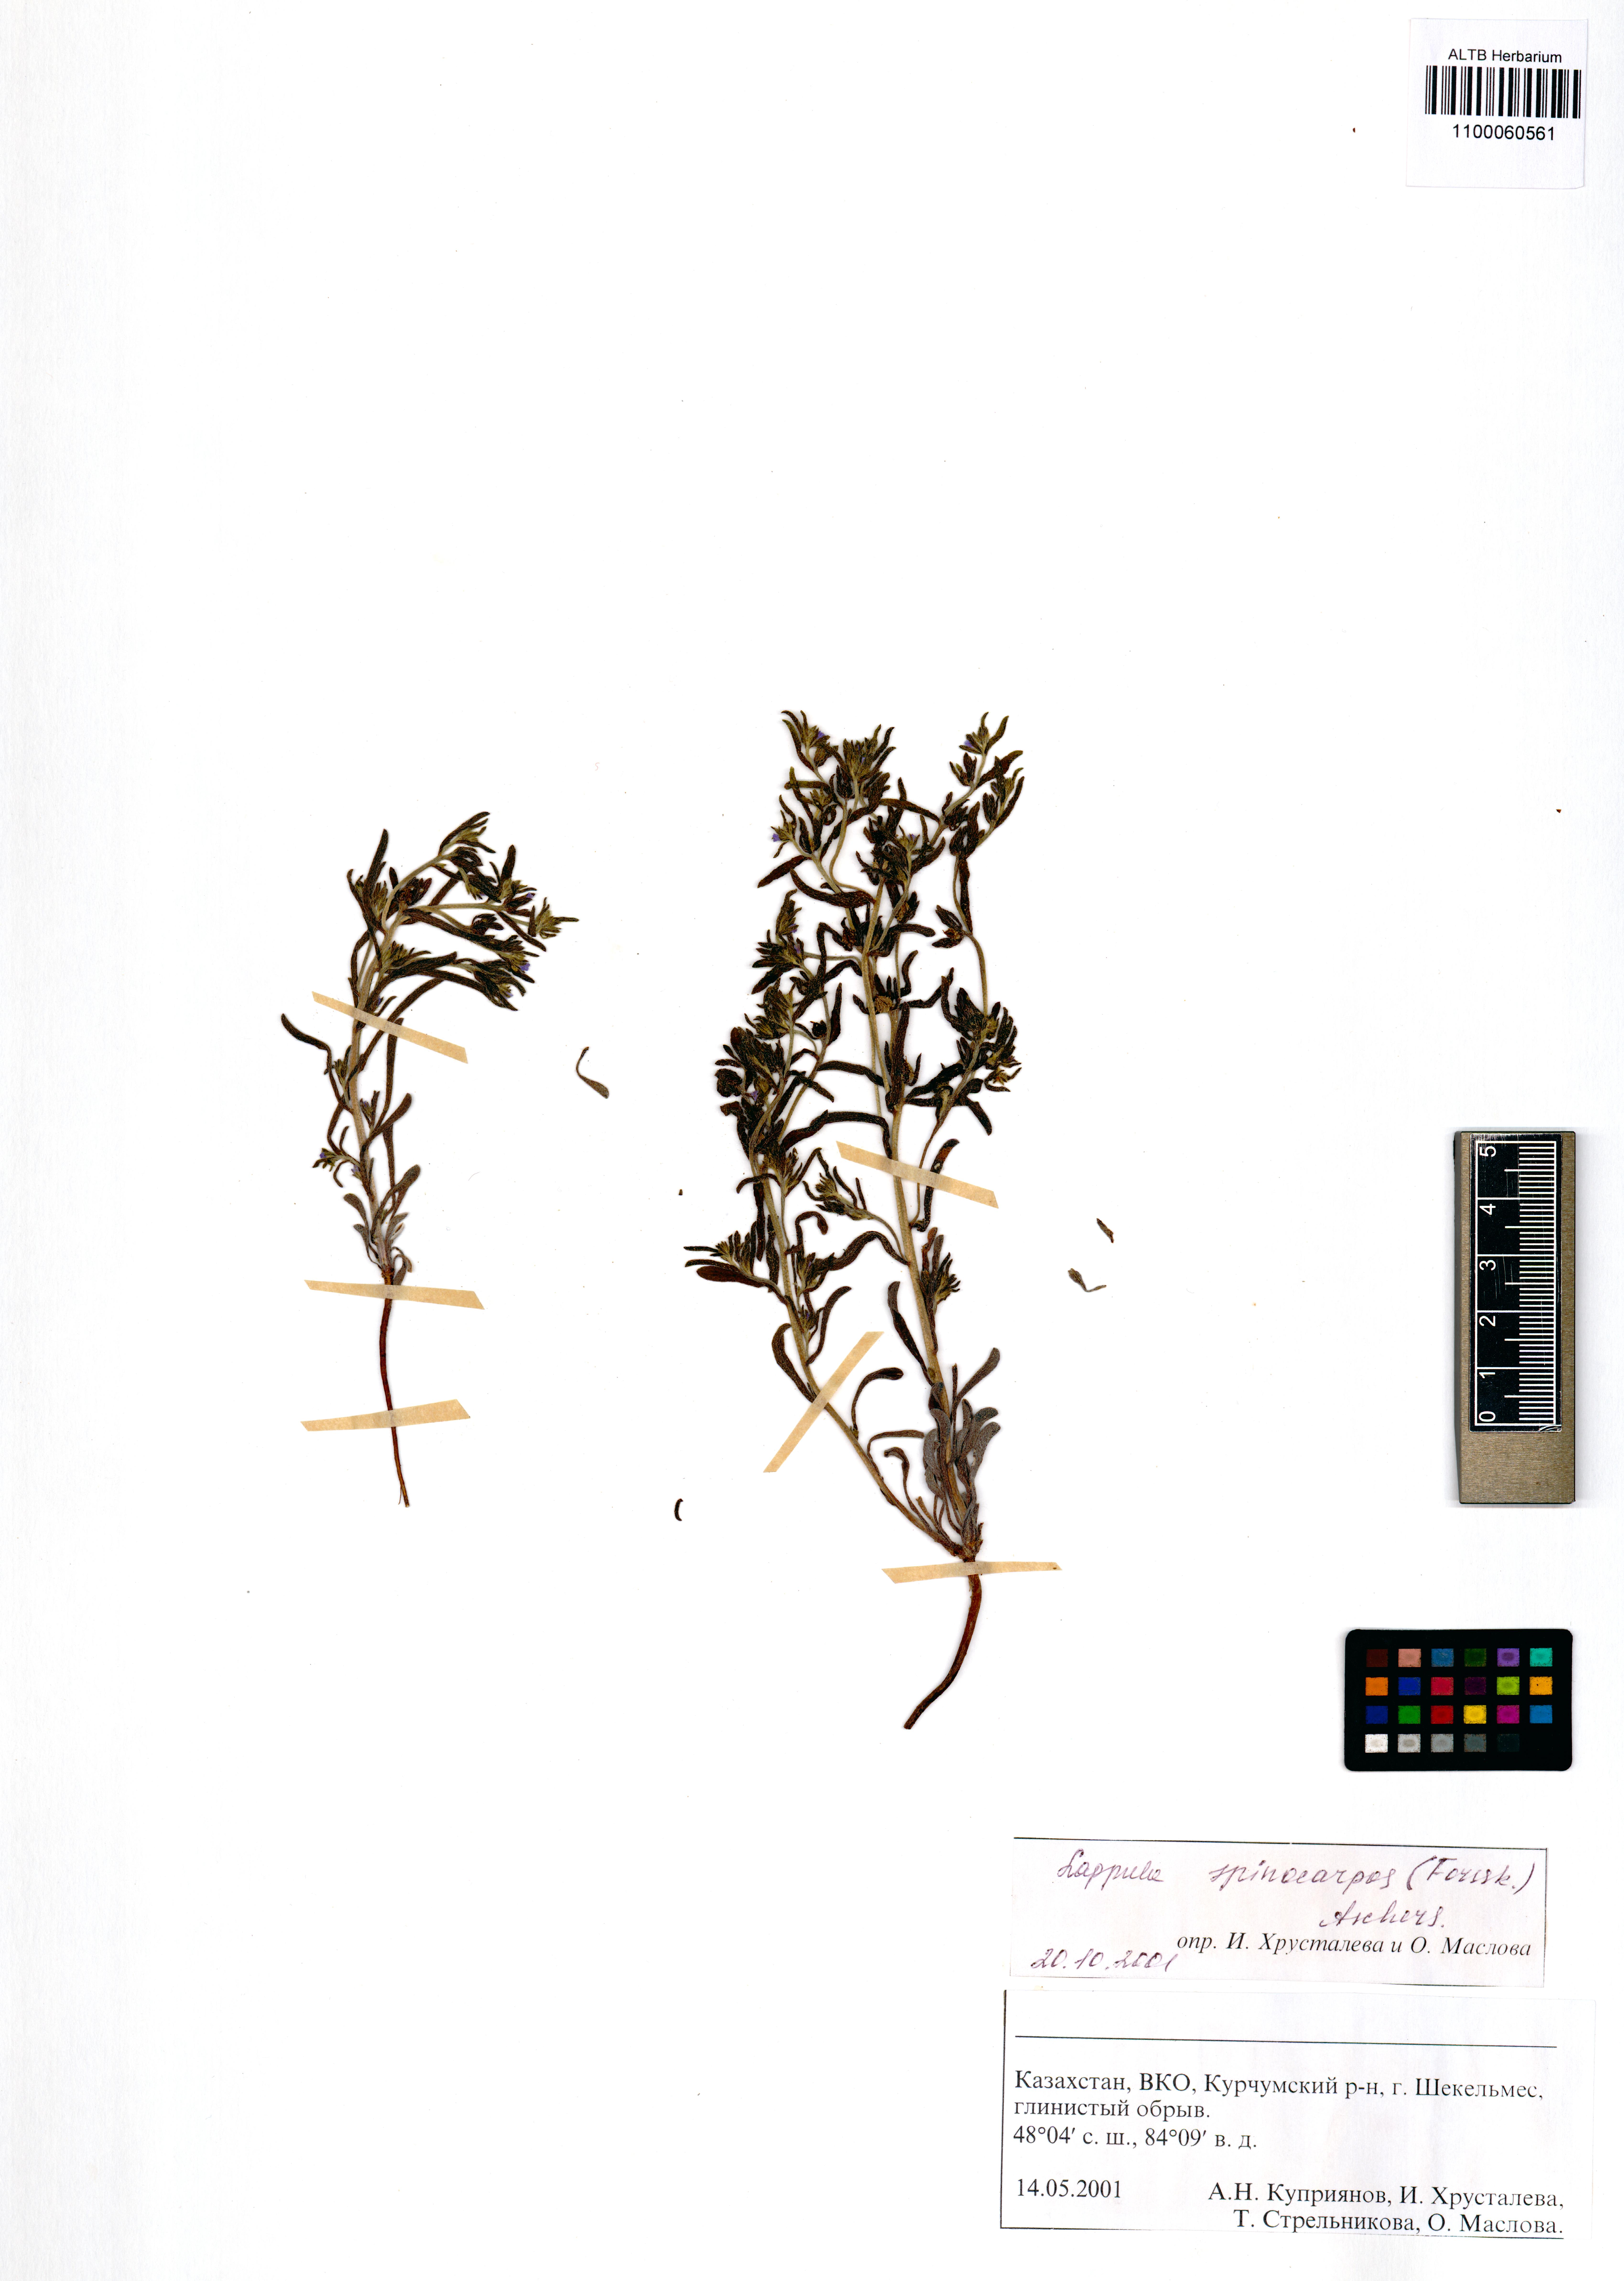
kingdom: Plantae
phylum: Tracheophyta
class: Magnoliopsida
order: Boraginales
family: Boraginaceae
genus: Lappula
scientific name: Lappula spinocarpos
